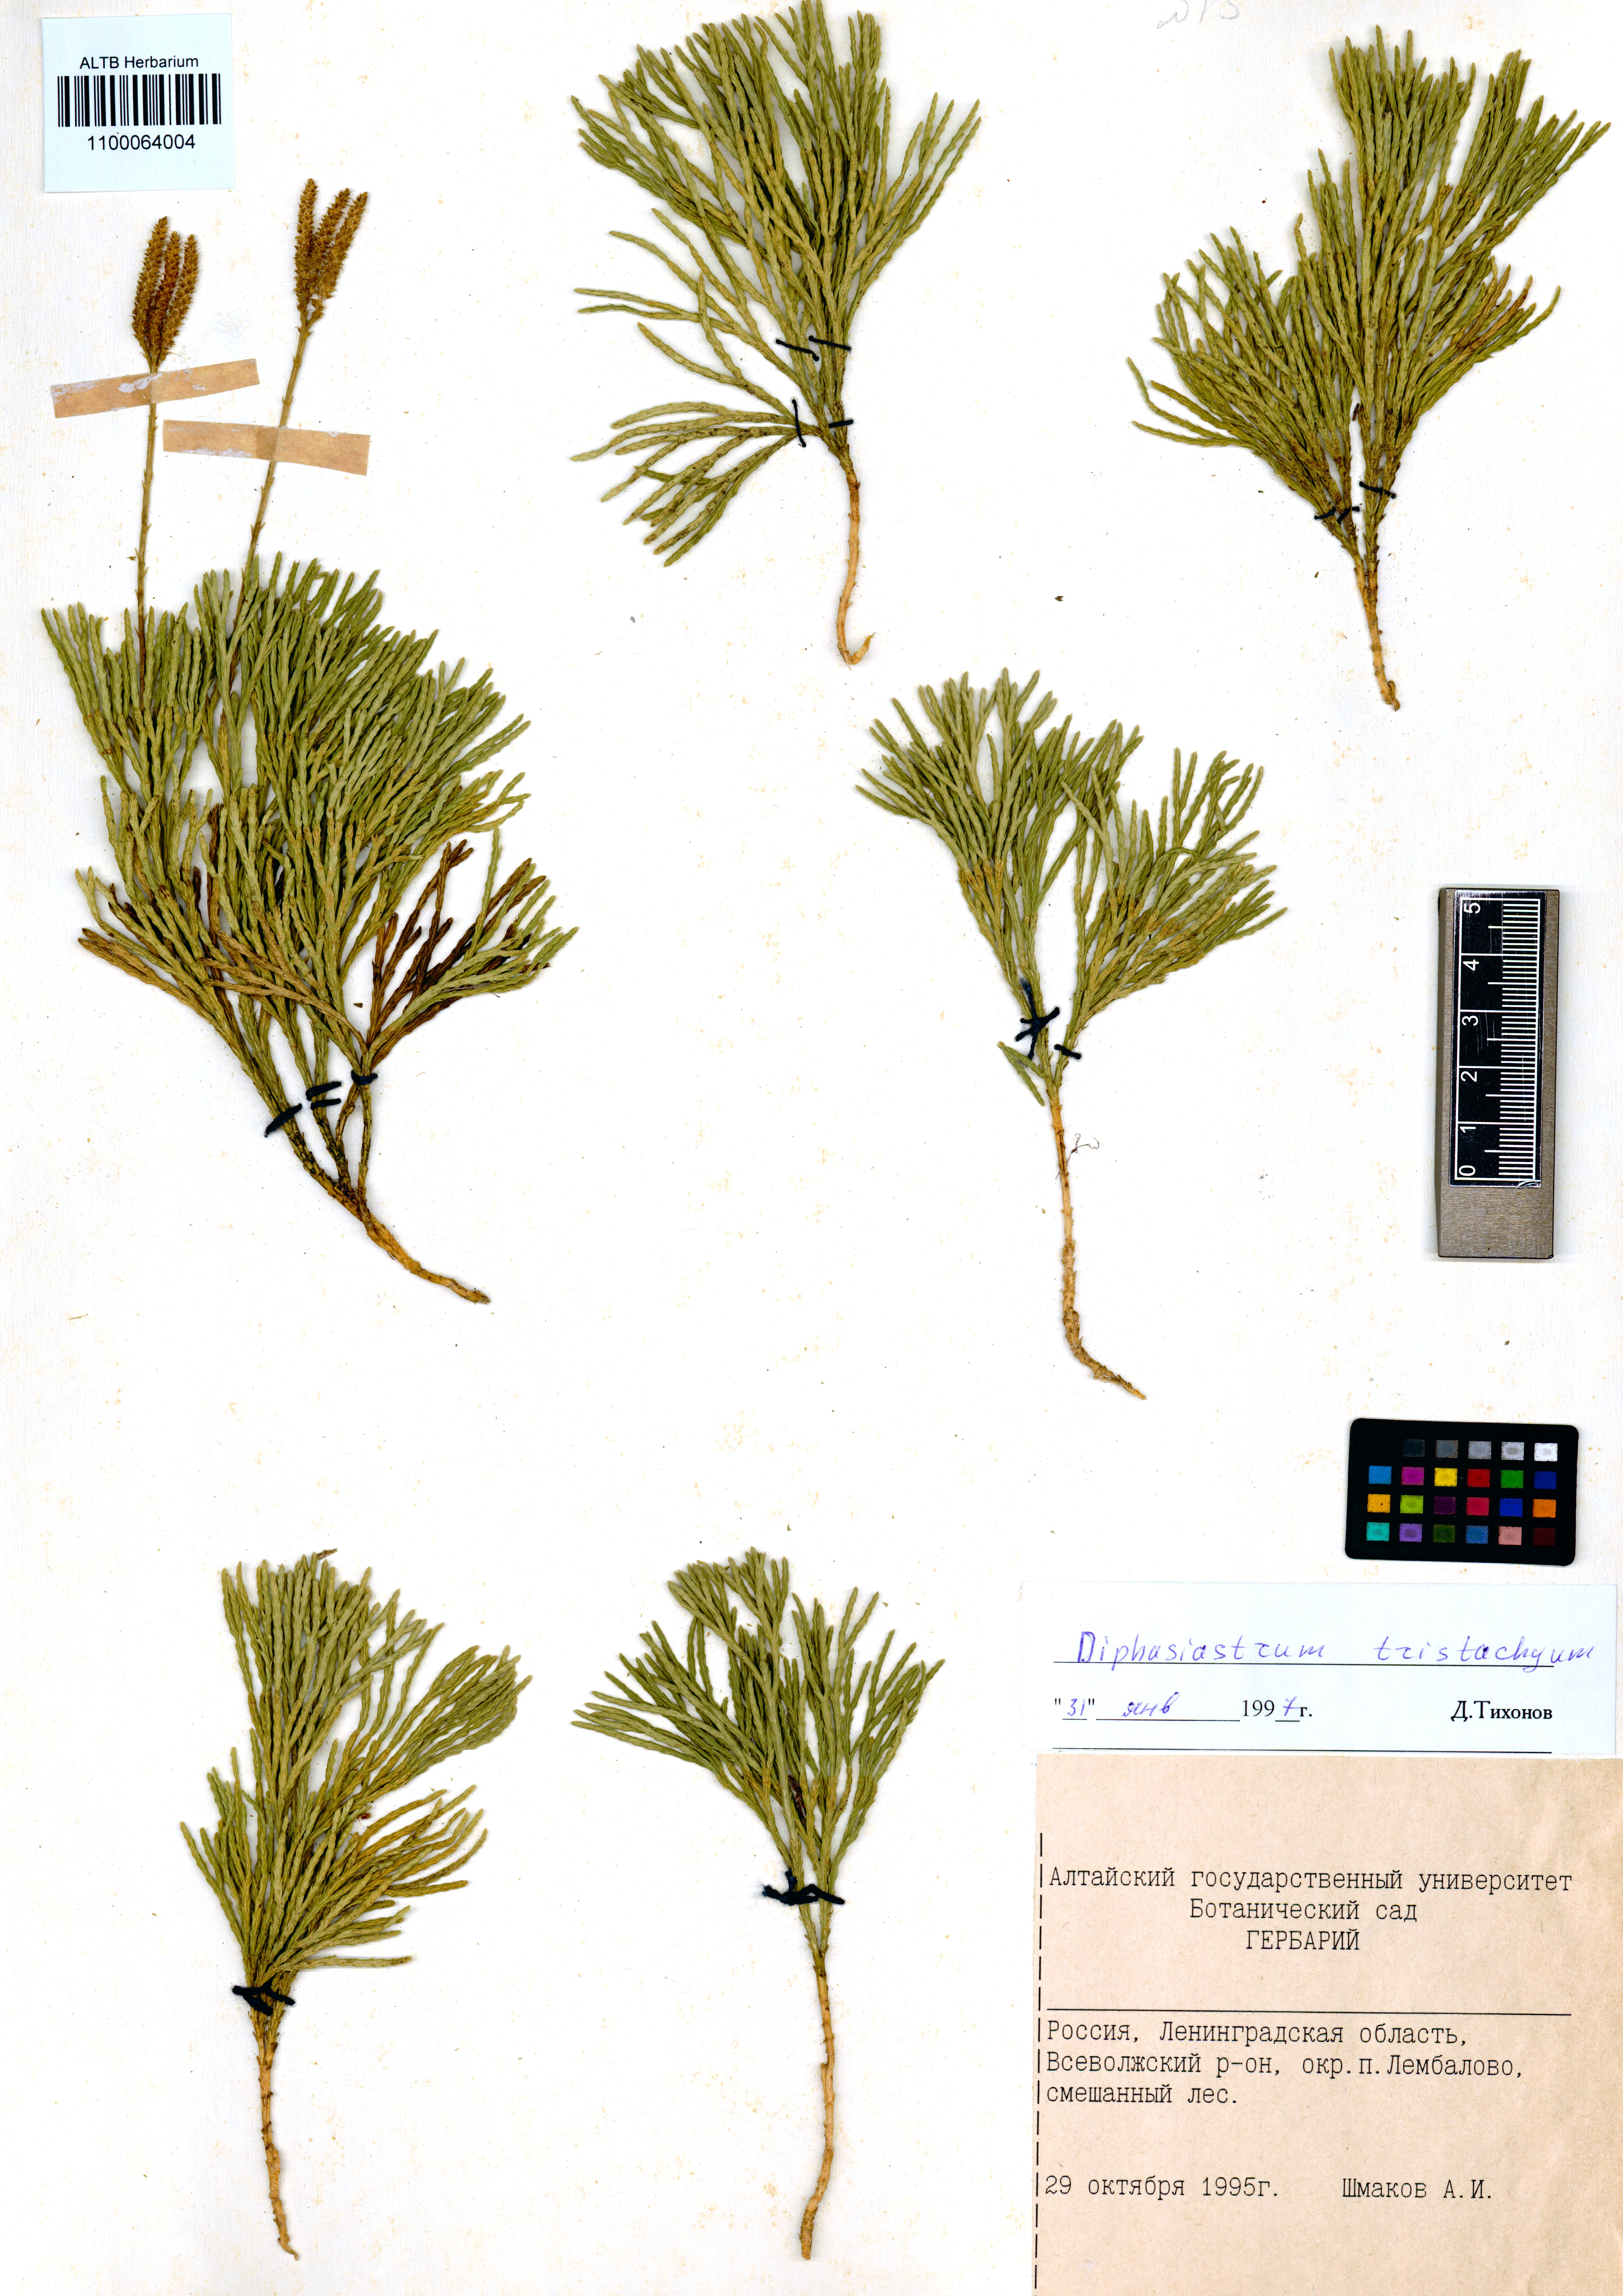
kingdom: Plantae
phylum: Tracheophyta
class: Lycopodiopsida
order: Lycopodiales
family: Lycopodiaceae
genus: Diphasiastrum
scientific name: Diphasiastrum tristachyum
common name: Blue ground-cedar
